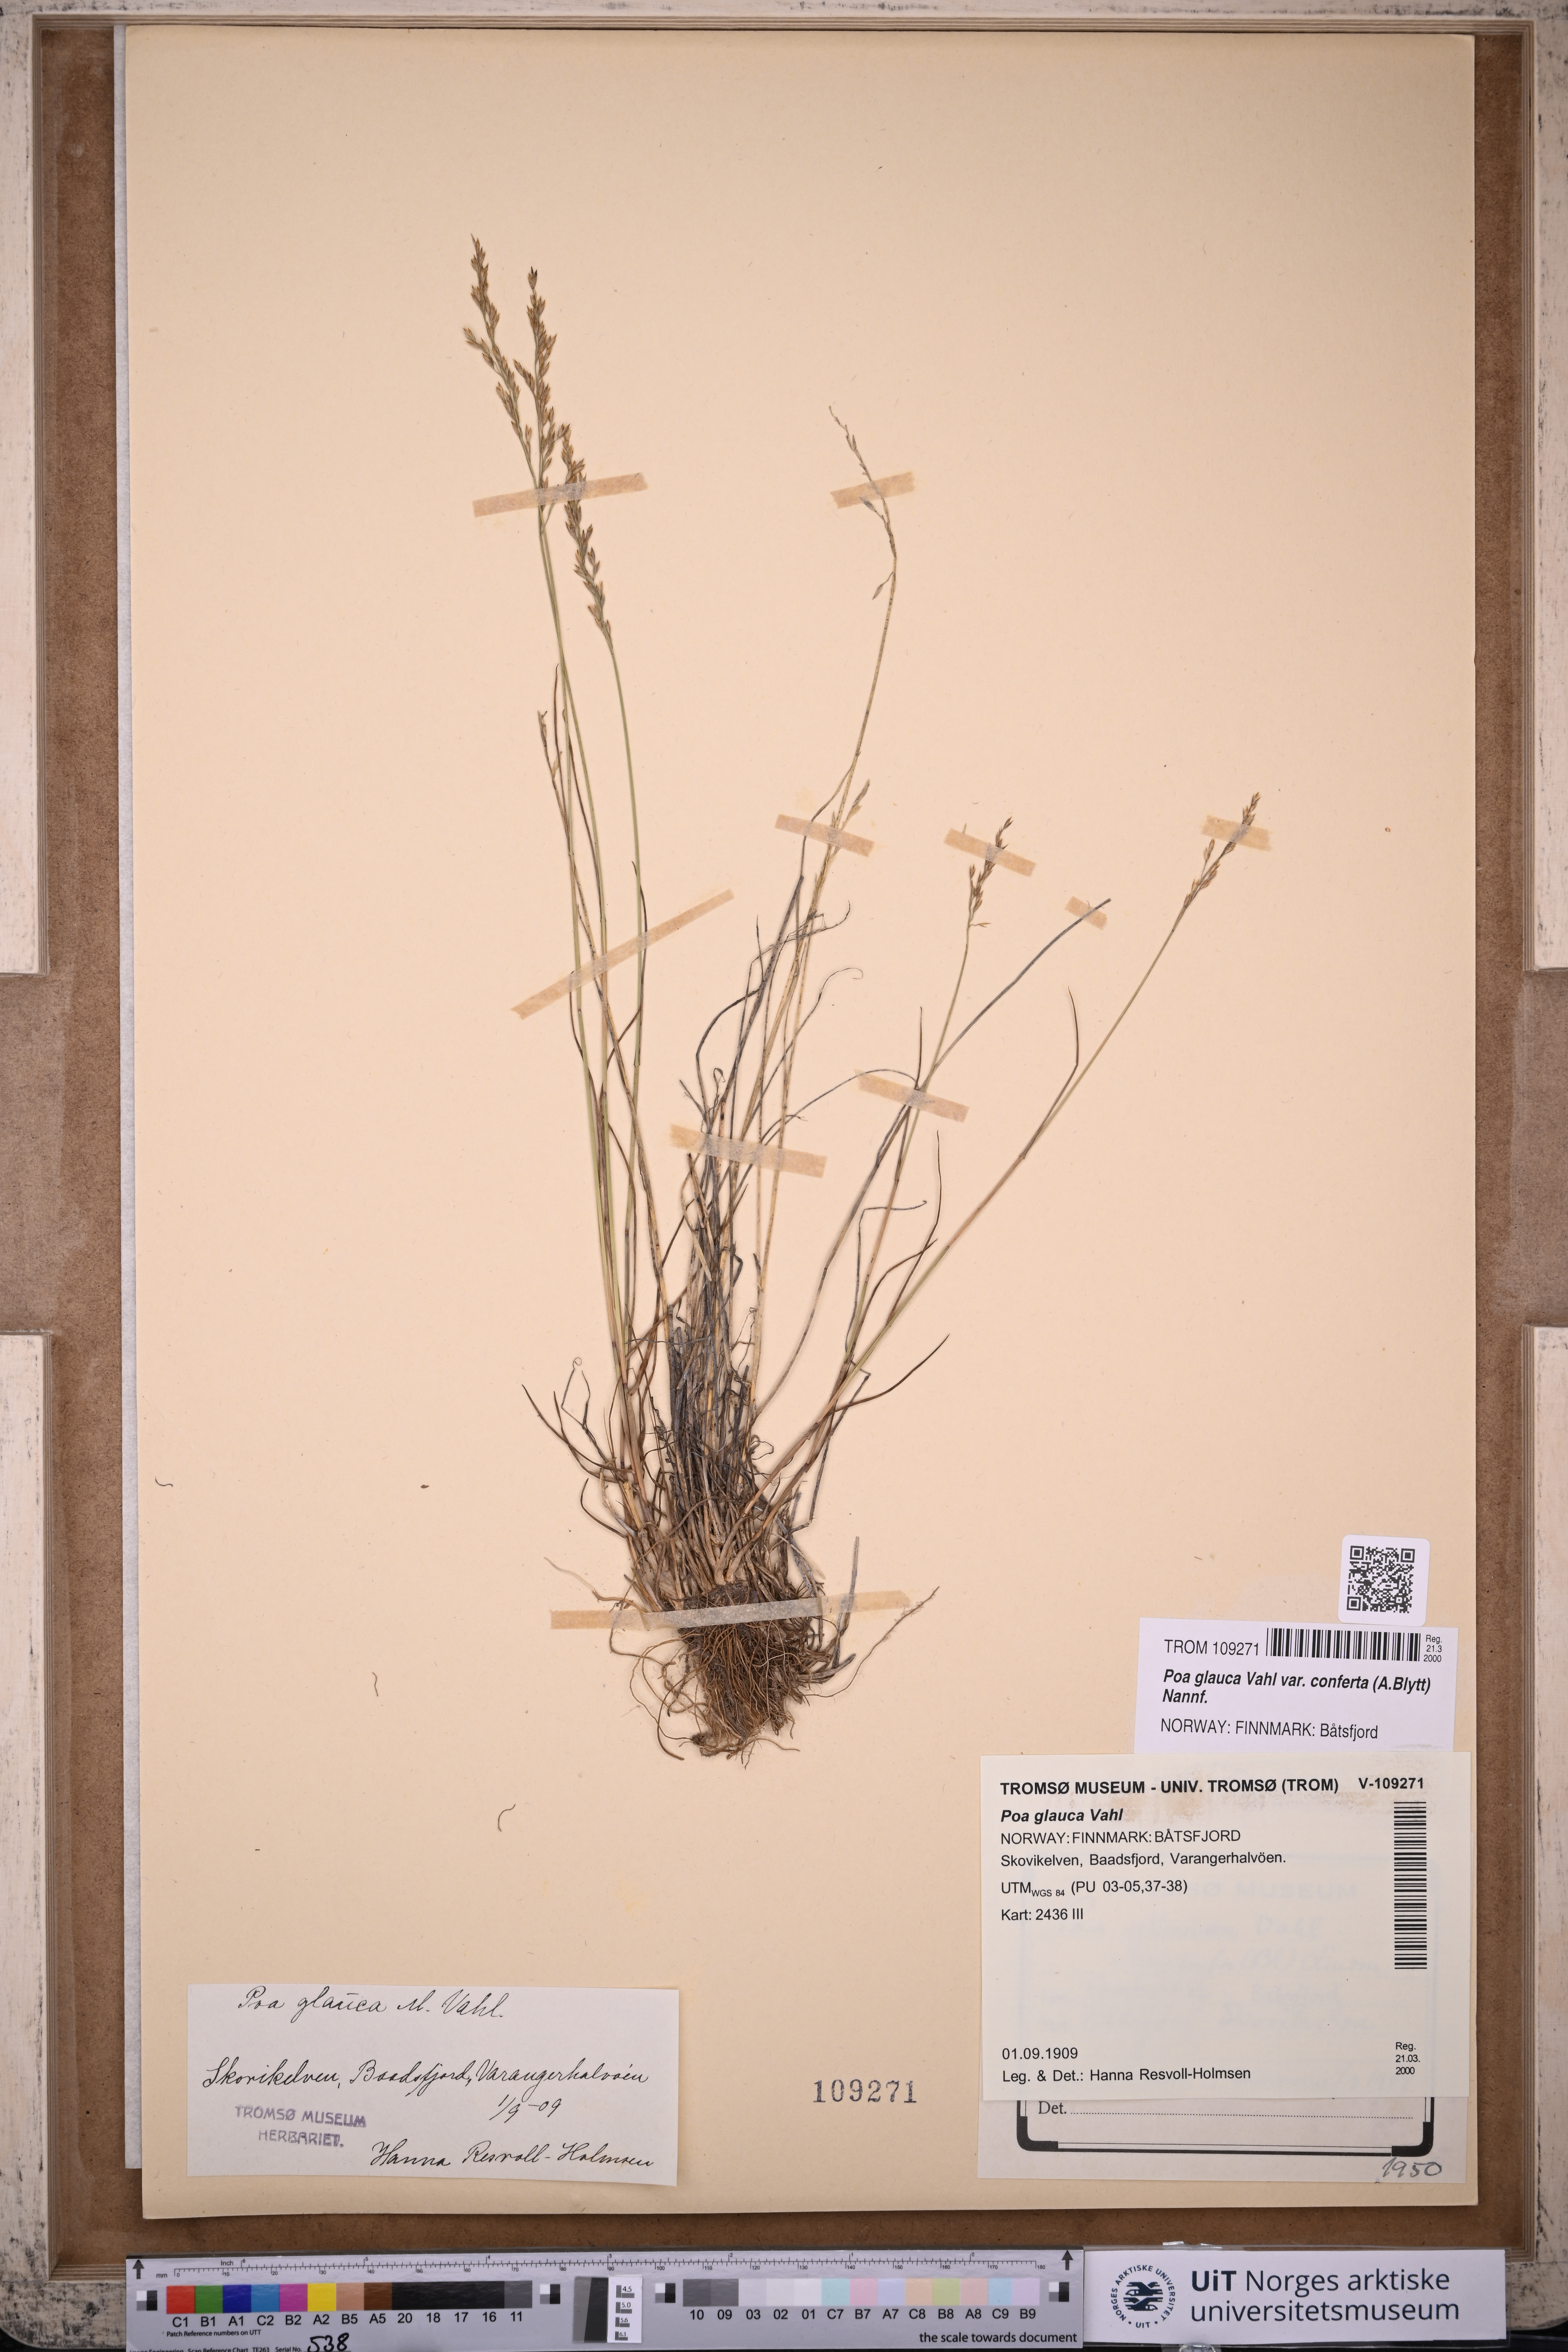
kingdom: Plantae
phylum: Tracheophyta
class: Liliopsida
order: Poales
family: Poaceae
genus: Poa
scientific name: Poa glauca
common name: Glaucous bluegrass
